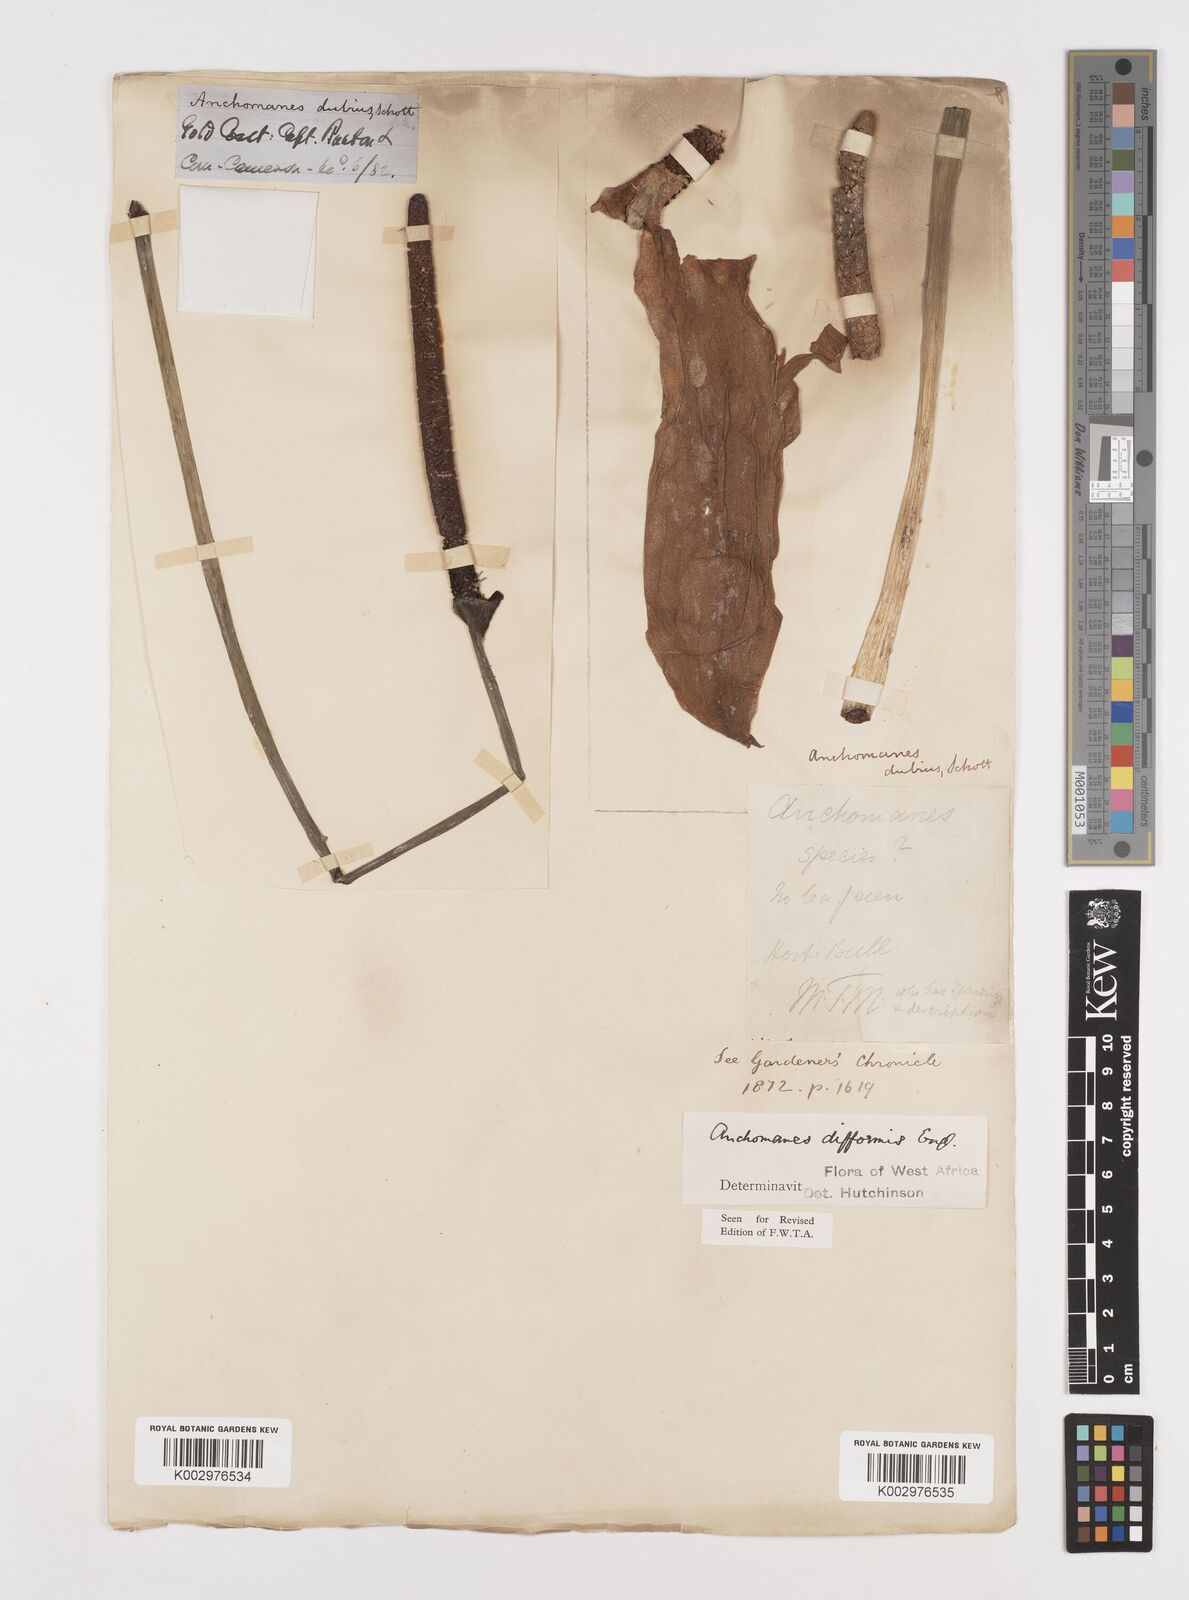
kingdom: Plantae
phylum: Tracheophyta
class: Liliopsida
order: Alismatales
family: Araceae
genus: Anchomanes
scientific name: Anchomanes difformis
